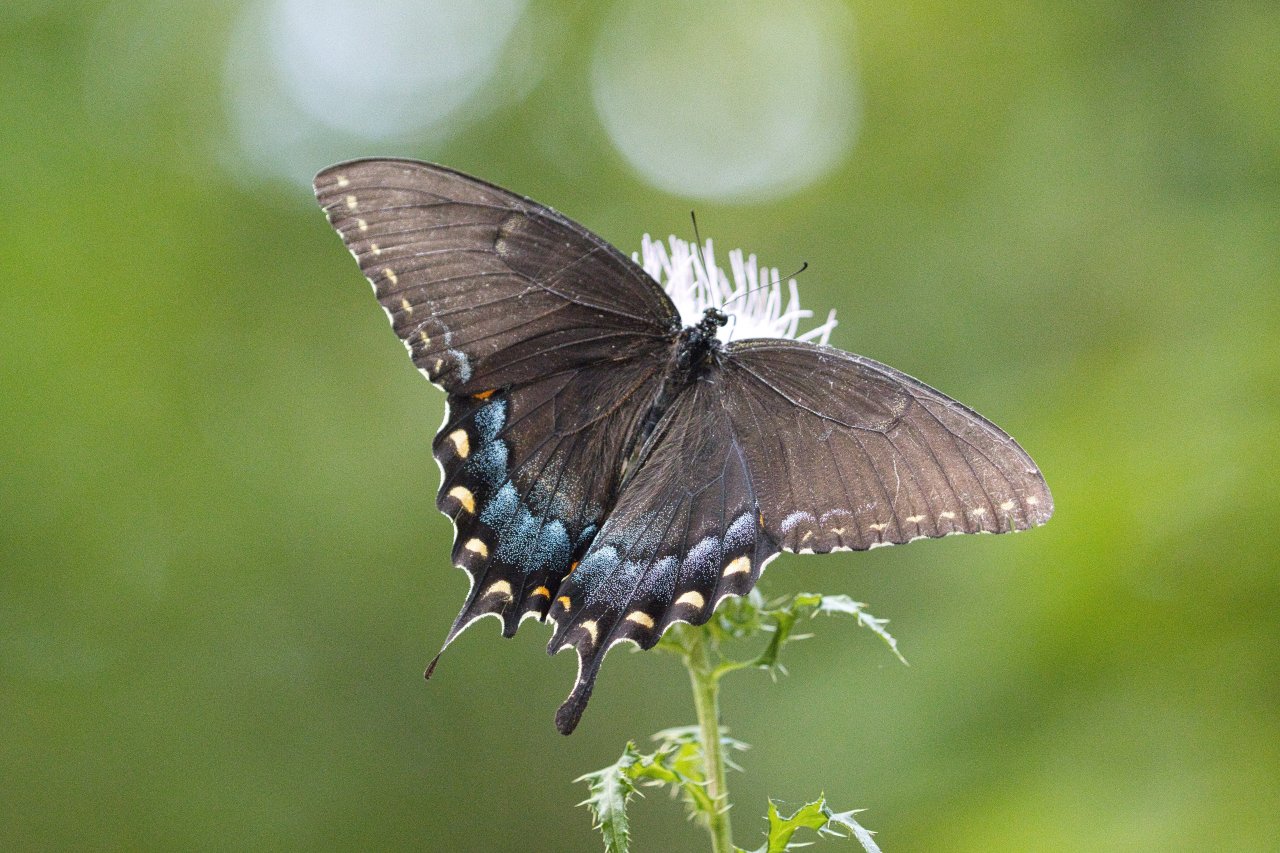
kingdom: Animalia
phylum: Arthropoda
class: Insecta
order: Lepidoptera
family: Papilionidae
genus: Pterourus
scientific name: Pterourus glaucus
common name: Eastern Tiger Swallowtail
